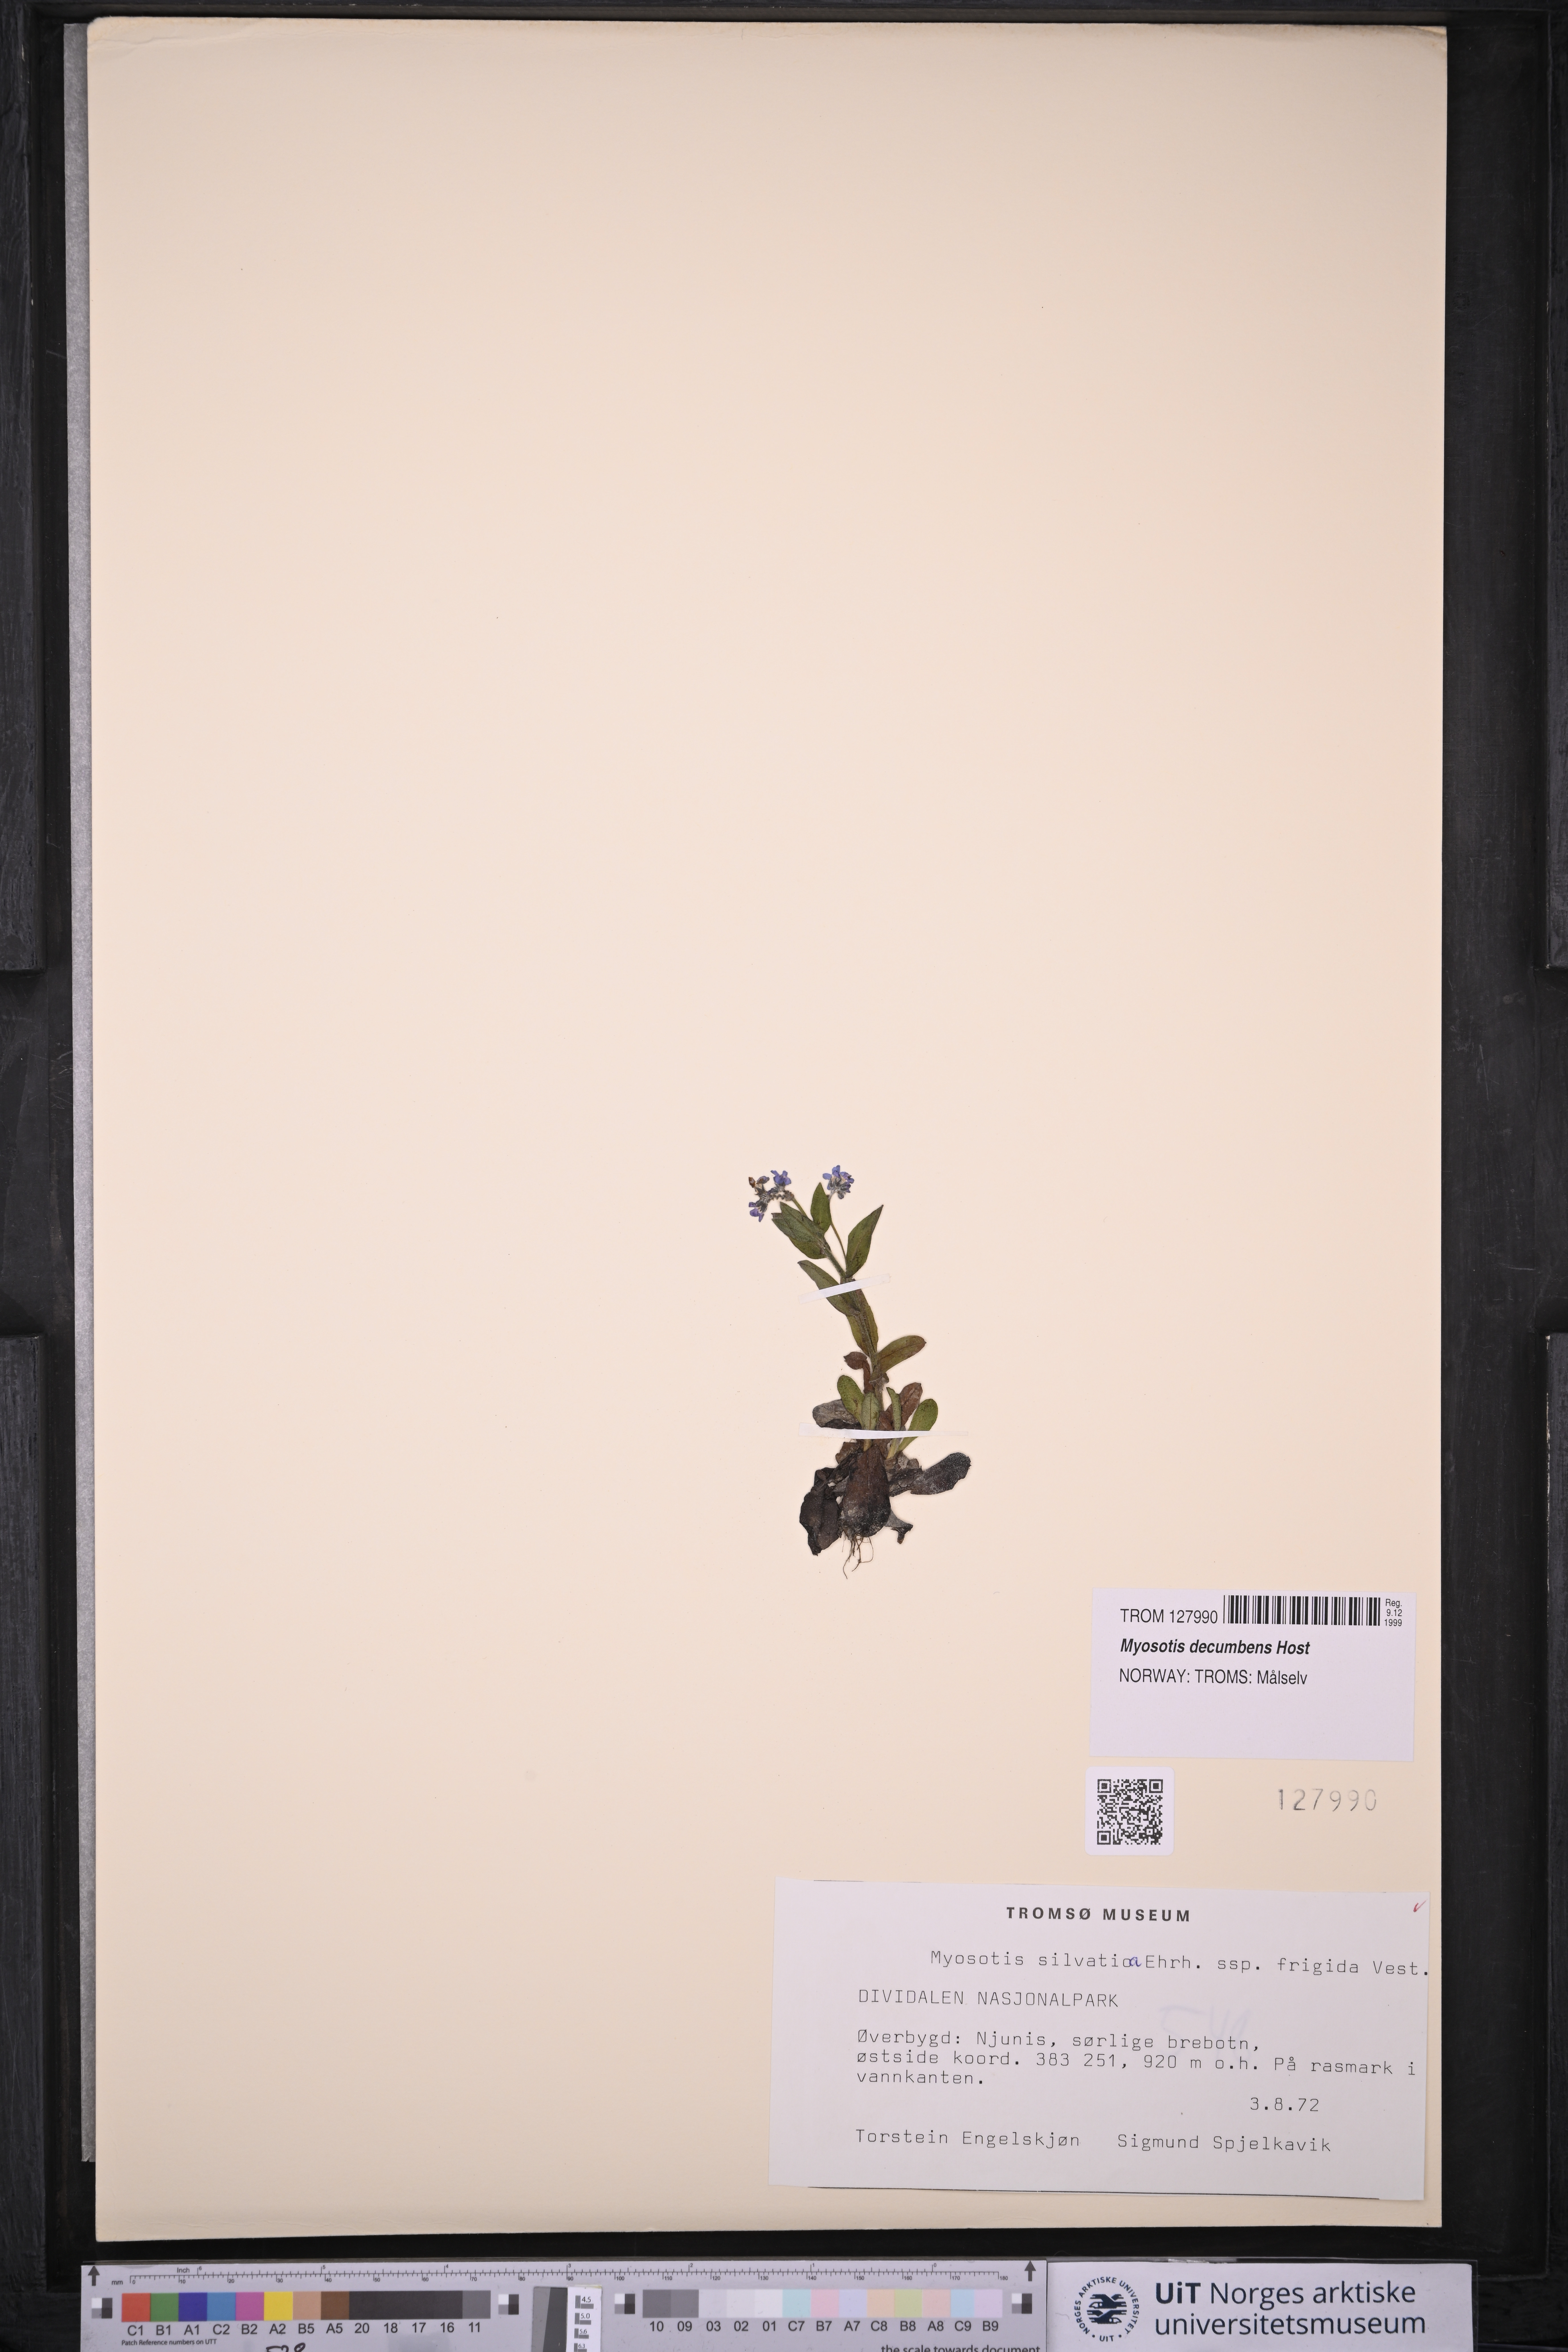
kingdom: Plantae
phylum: Tracheophyta
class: Magnoliopsida
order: Boraginales
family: Boraginaceae
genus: Myosotis
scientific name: Myosotis decumbens
